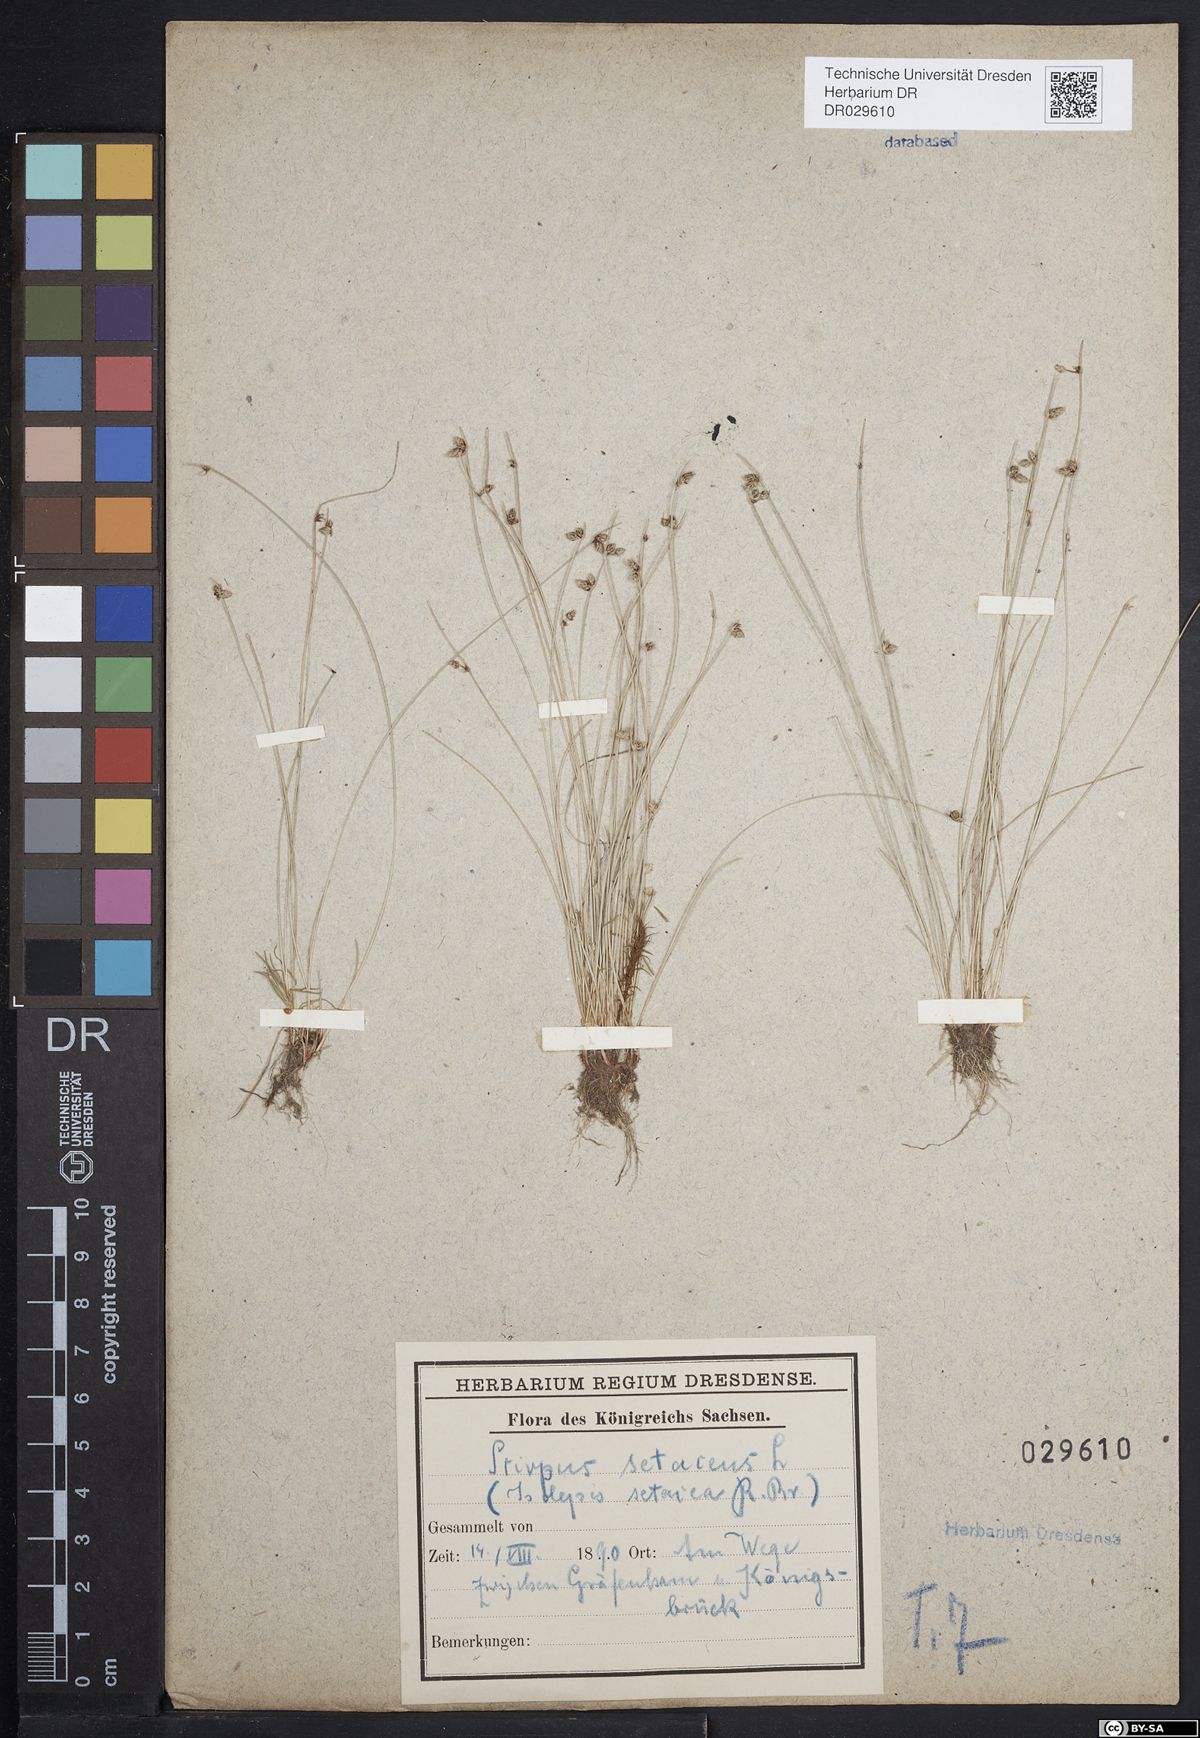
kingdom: Plantae
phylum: Tracheophyta
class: Liliopsida
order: Poales
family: Cyperaceae
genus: Isolepis
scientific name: Isolepis setacea
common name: Bristle club-rush
